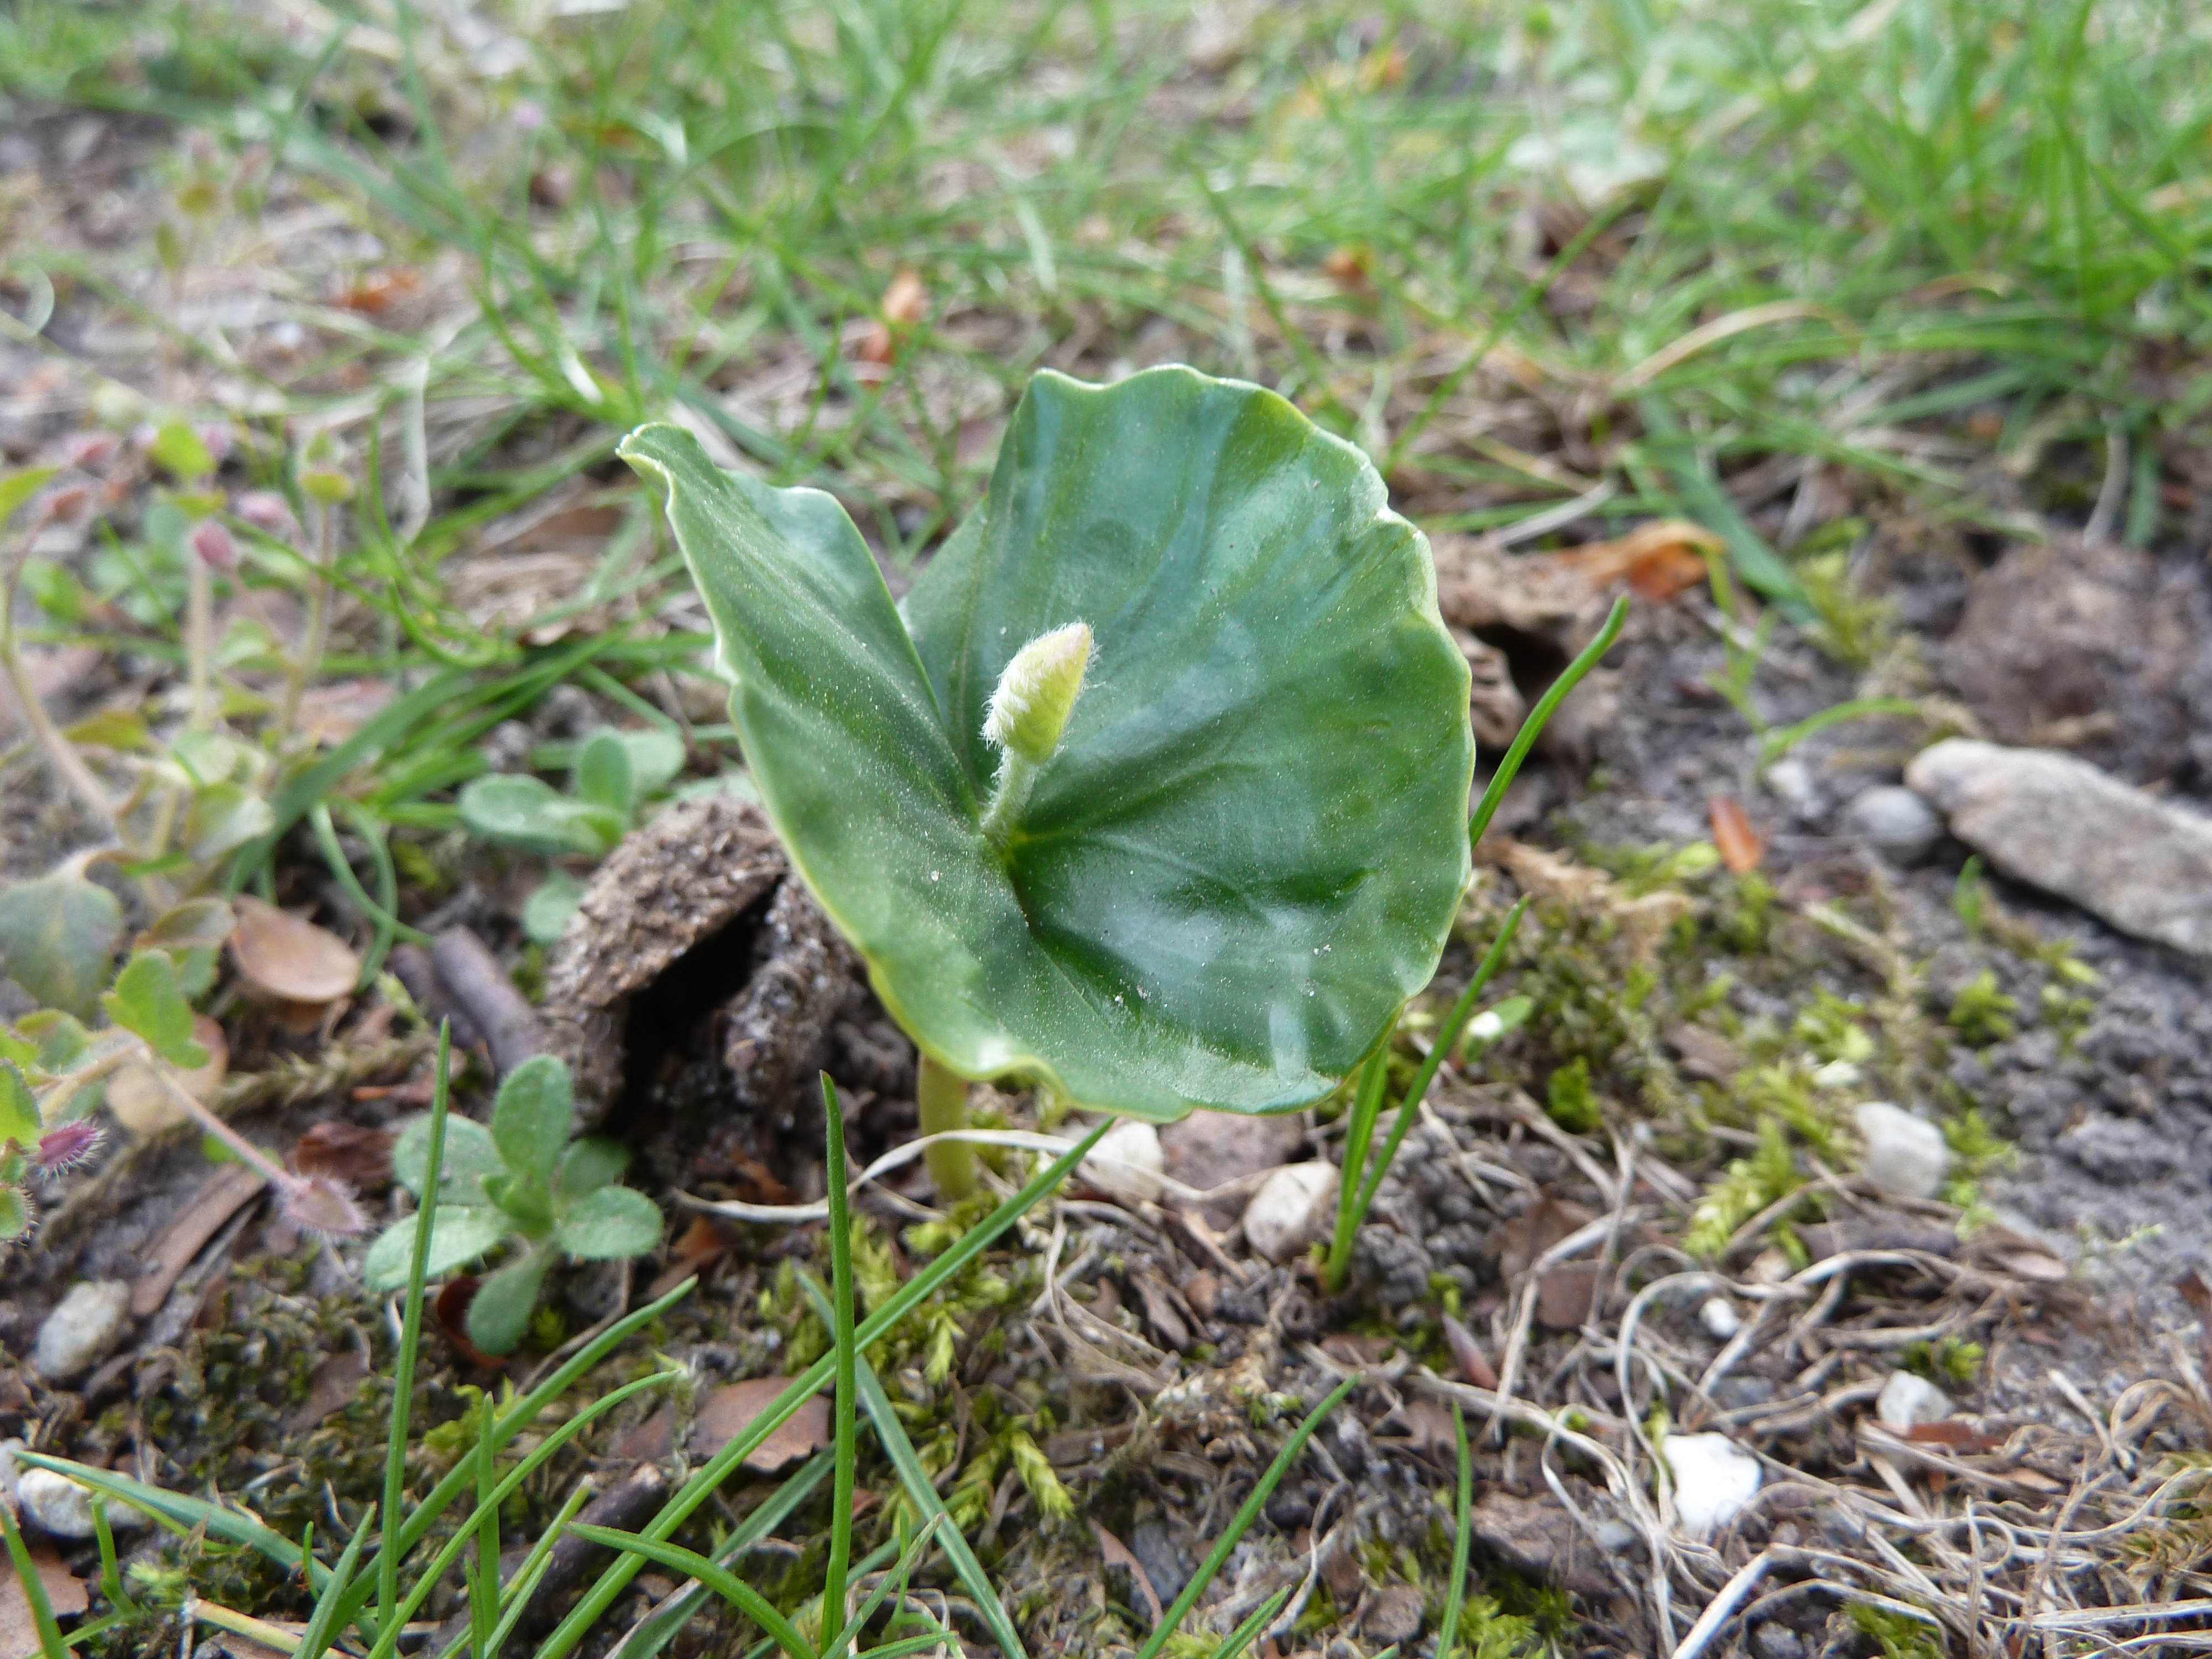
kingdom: Plantae
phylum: Tracheophyta
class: Magnoliopsida
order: Fagales
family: Fagaceae
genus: Fagus
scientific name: Fagus sylvatica
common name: Beech
